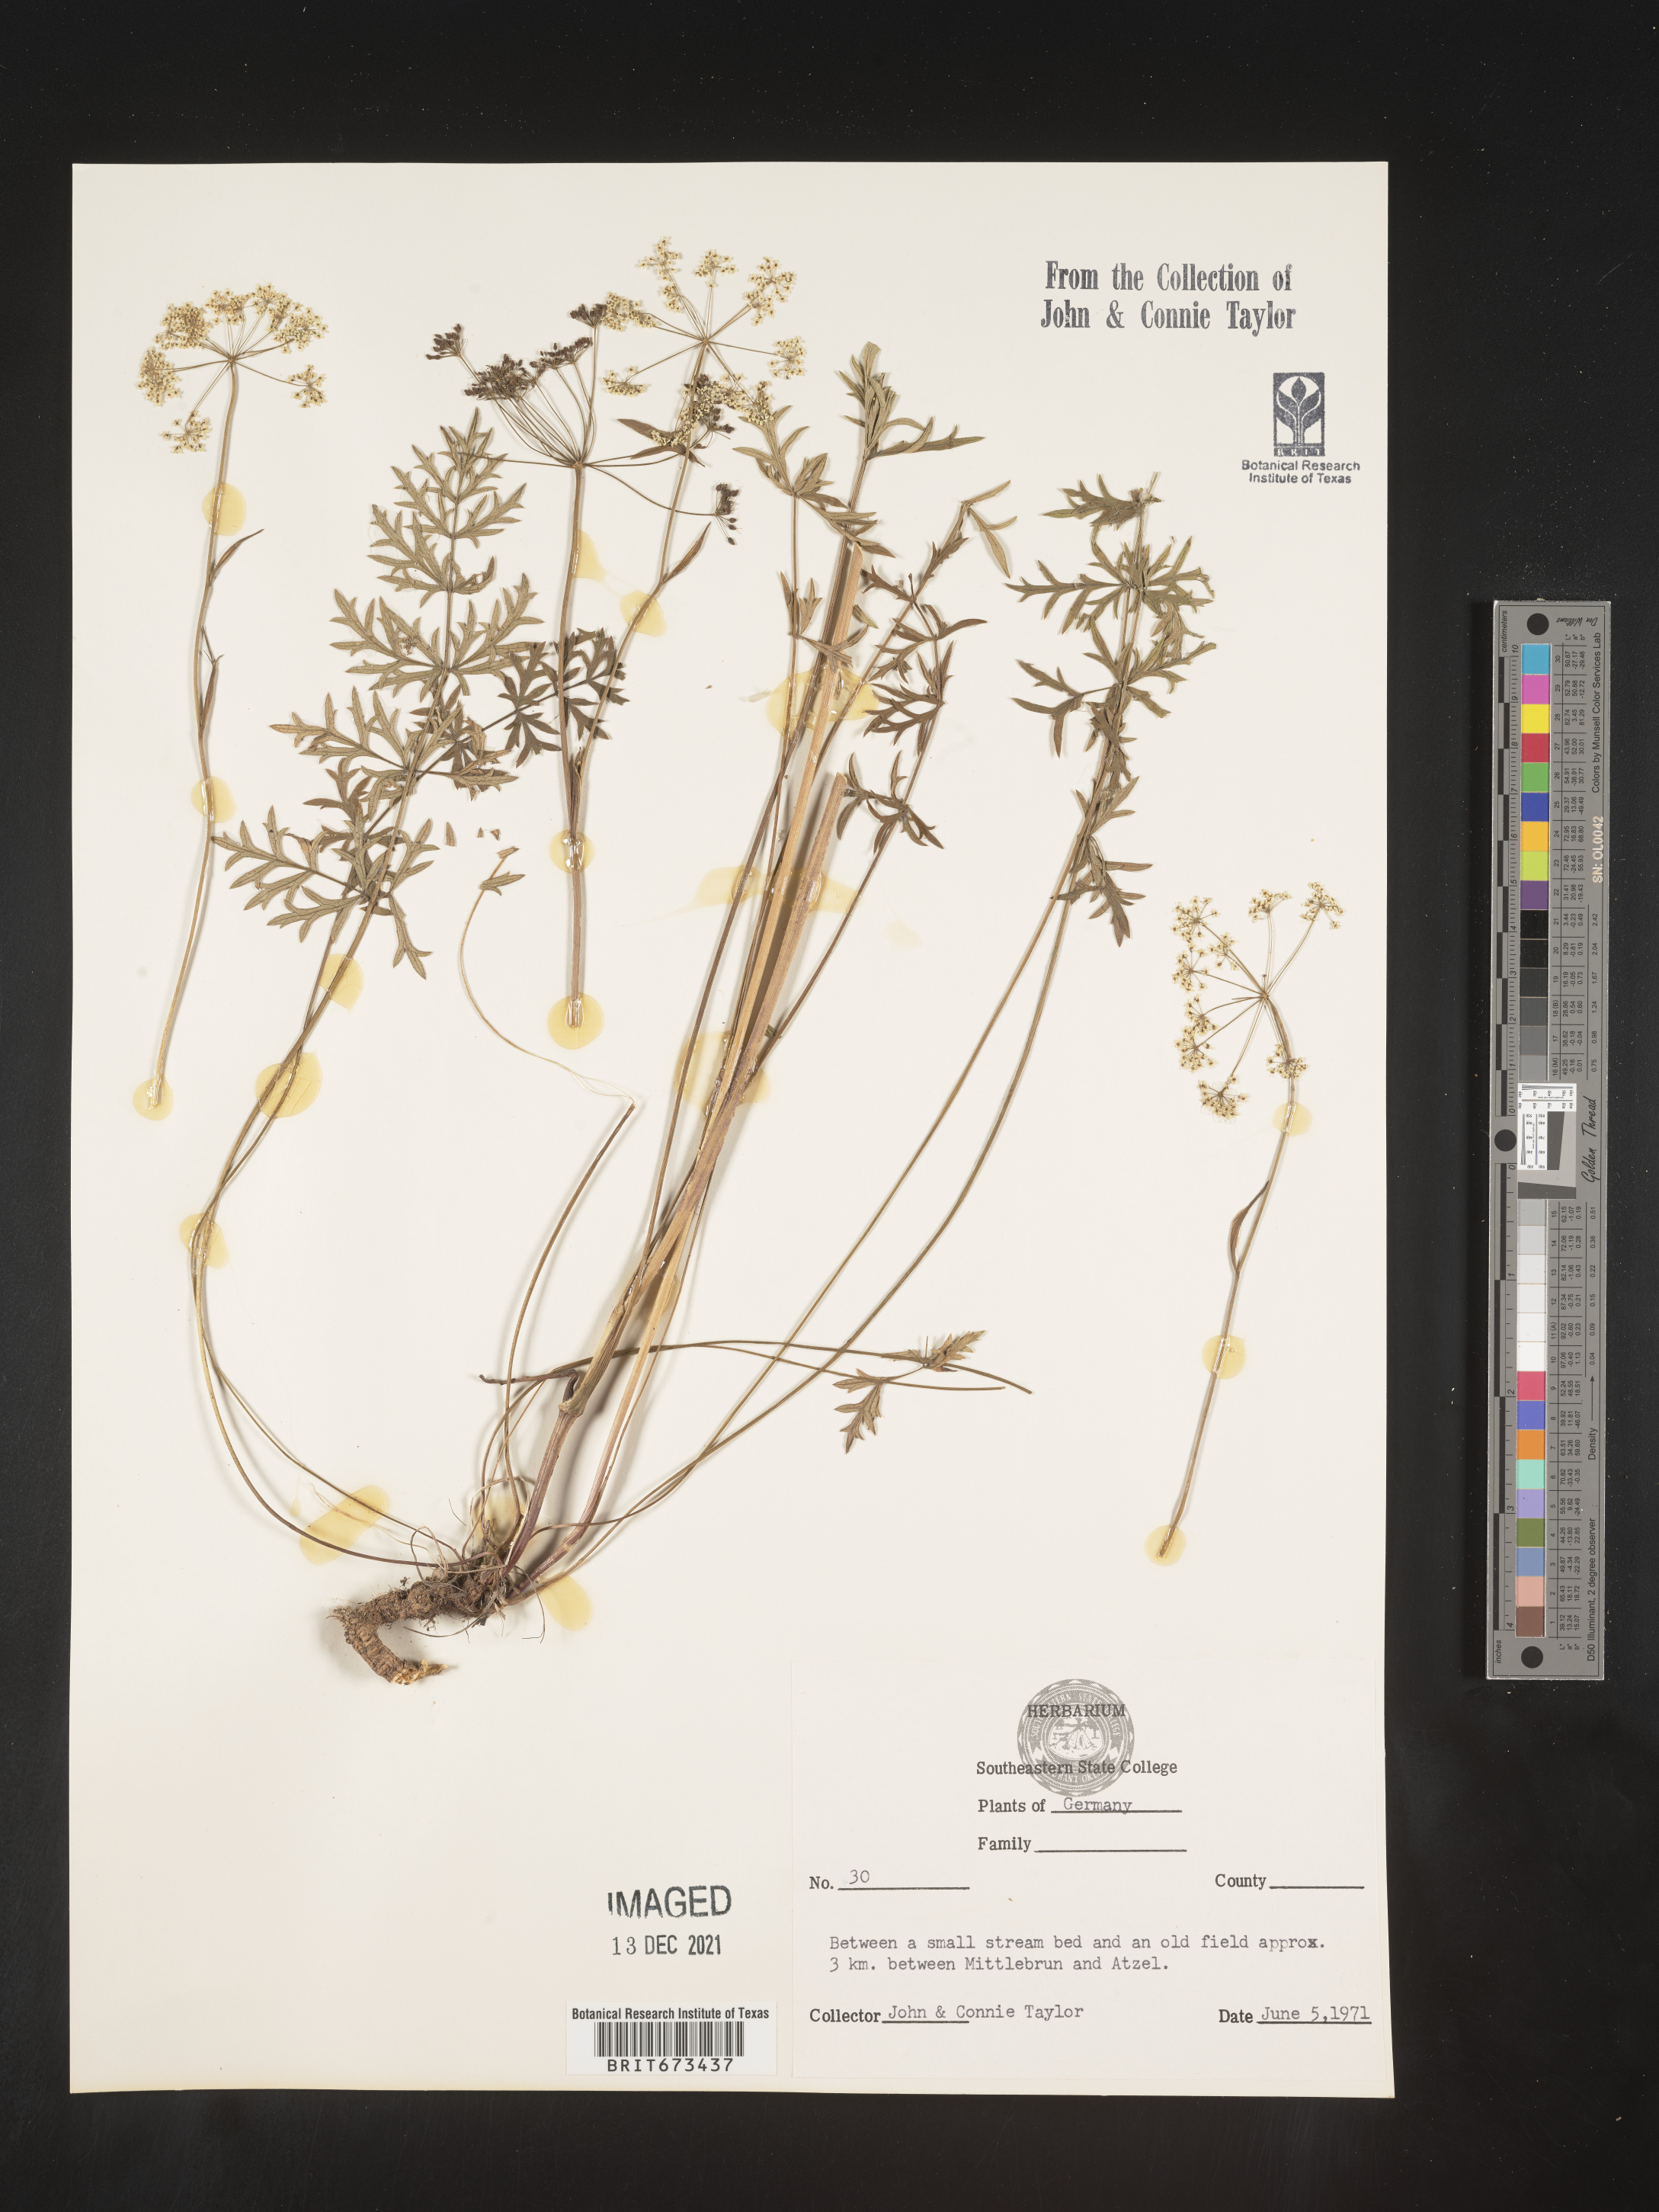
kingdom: Plantae
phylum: Tracheophyta
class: Magnoliopsida
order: Apiales
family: Apiaceae
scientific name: Apiaceae
